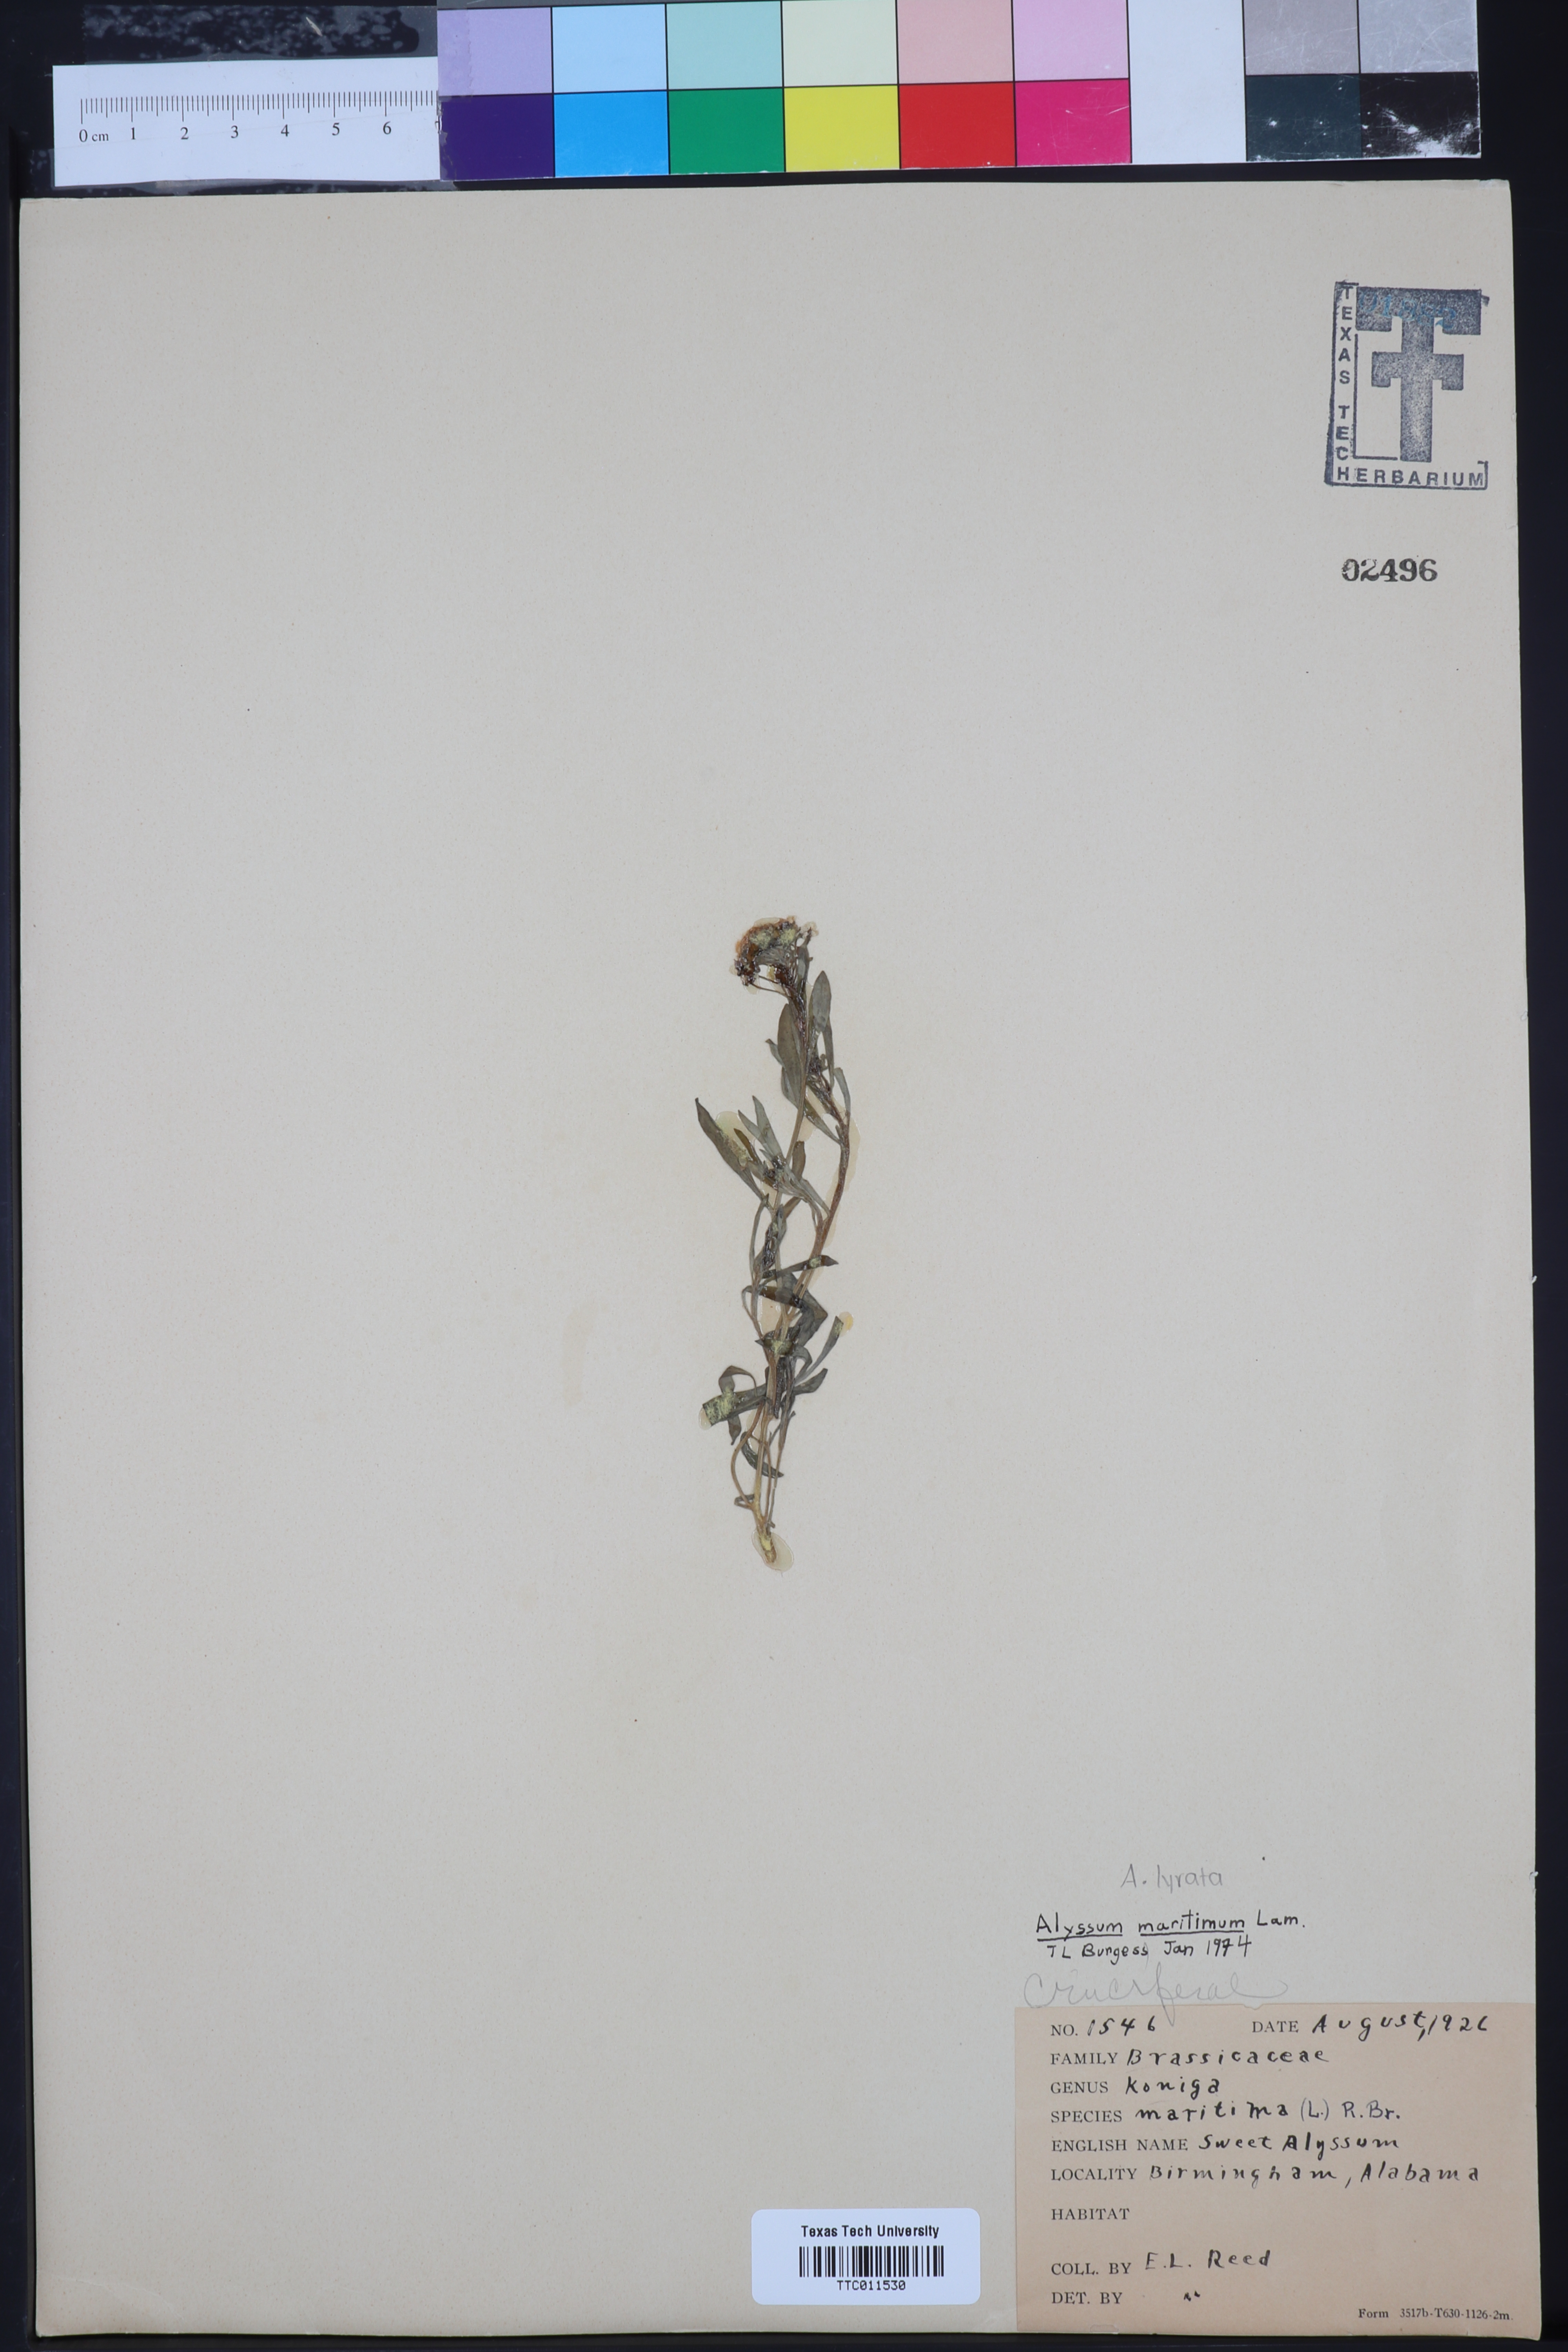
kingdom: Plantae
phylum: Tracheophyta
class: Magnoliopsida
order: Brassicales
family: Brassicaceae
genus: Lobularia
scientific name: Lobularia maritima
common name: Sweet alison
